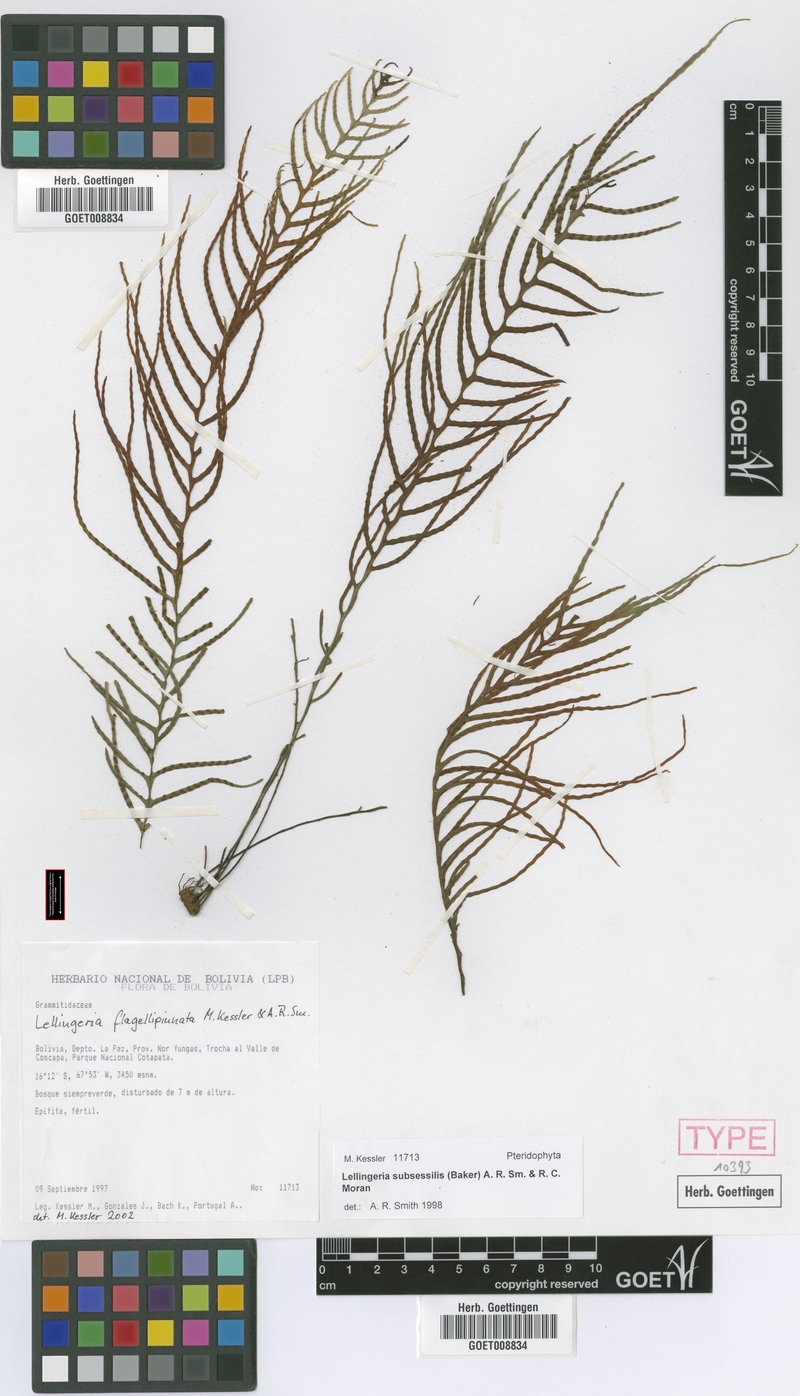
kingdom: Plantae
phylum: Tracheophyta
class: Polypodiopsida
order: Polypodiales
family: Polypodiaceae
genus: Lellingeria
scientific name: Lellingeria flagellipinnata
